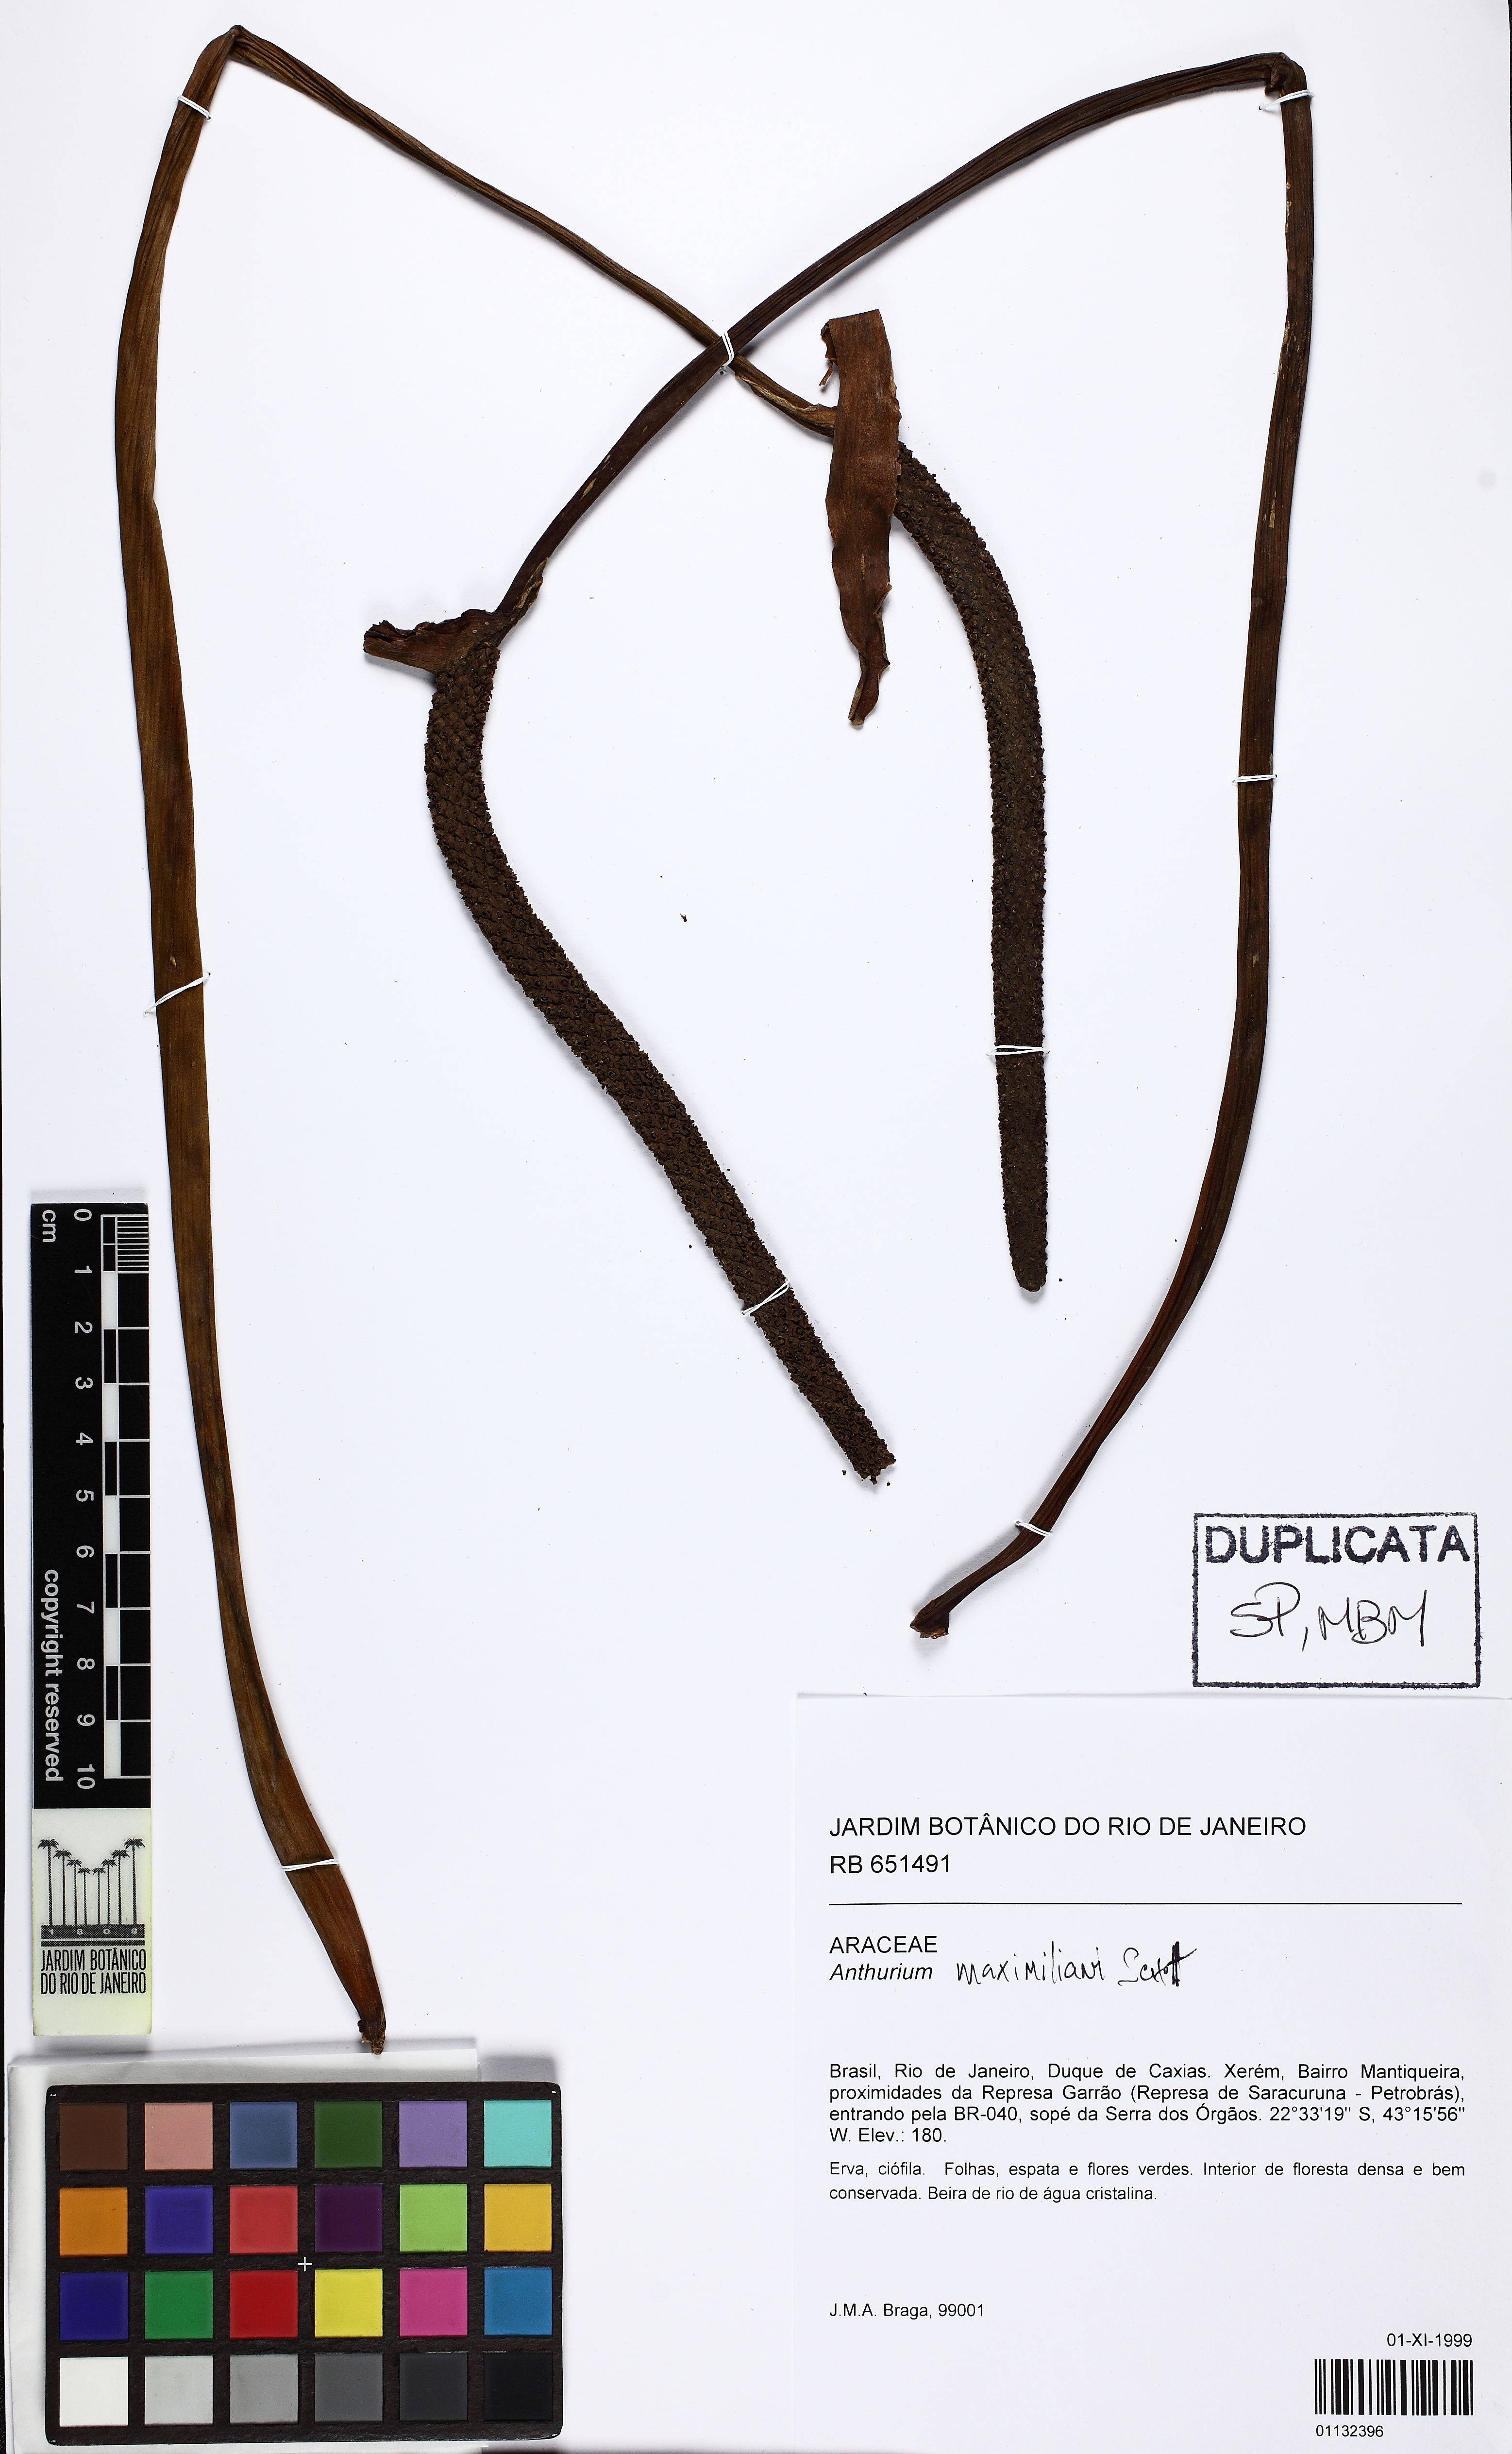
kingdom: Plantae
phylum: Tracheophyta
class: Liliopsida
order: Alismatales
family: Araceae
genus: Anthurium
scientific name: Anthurium augustinum
